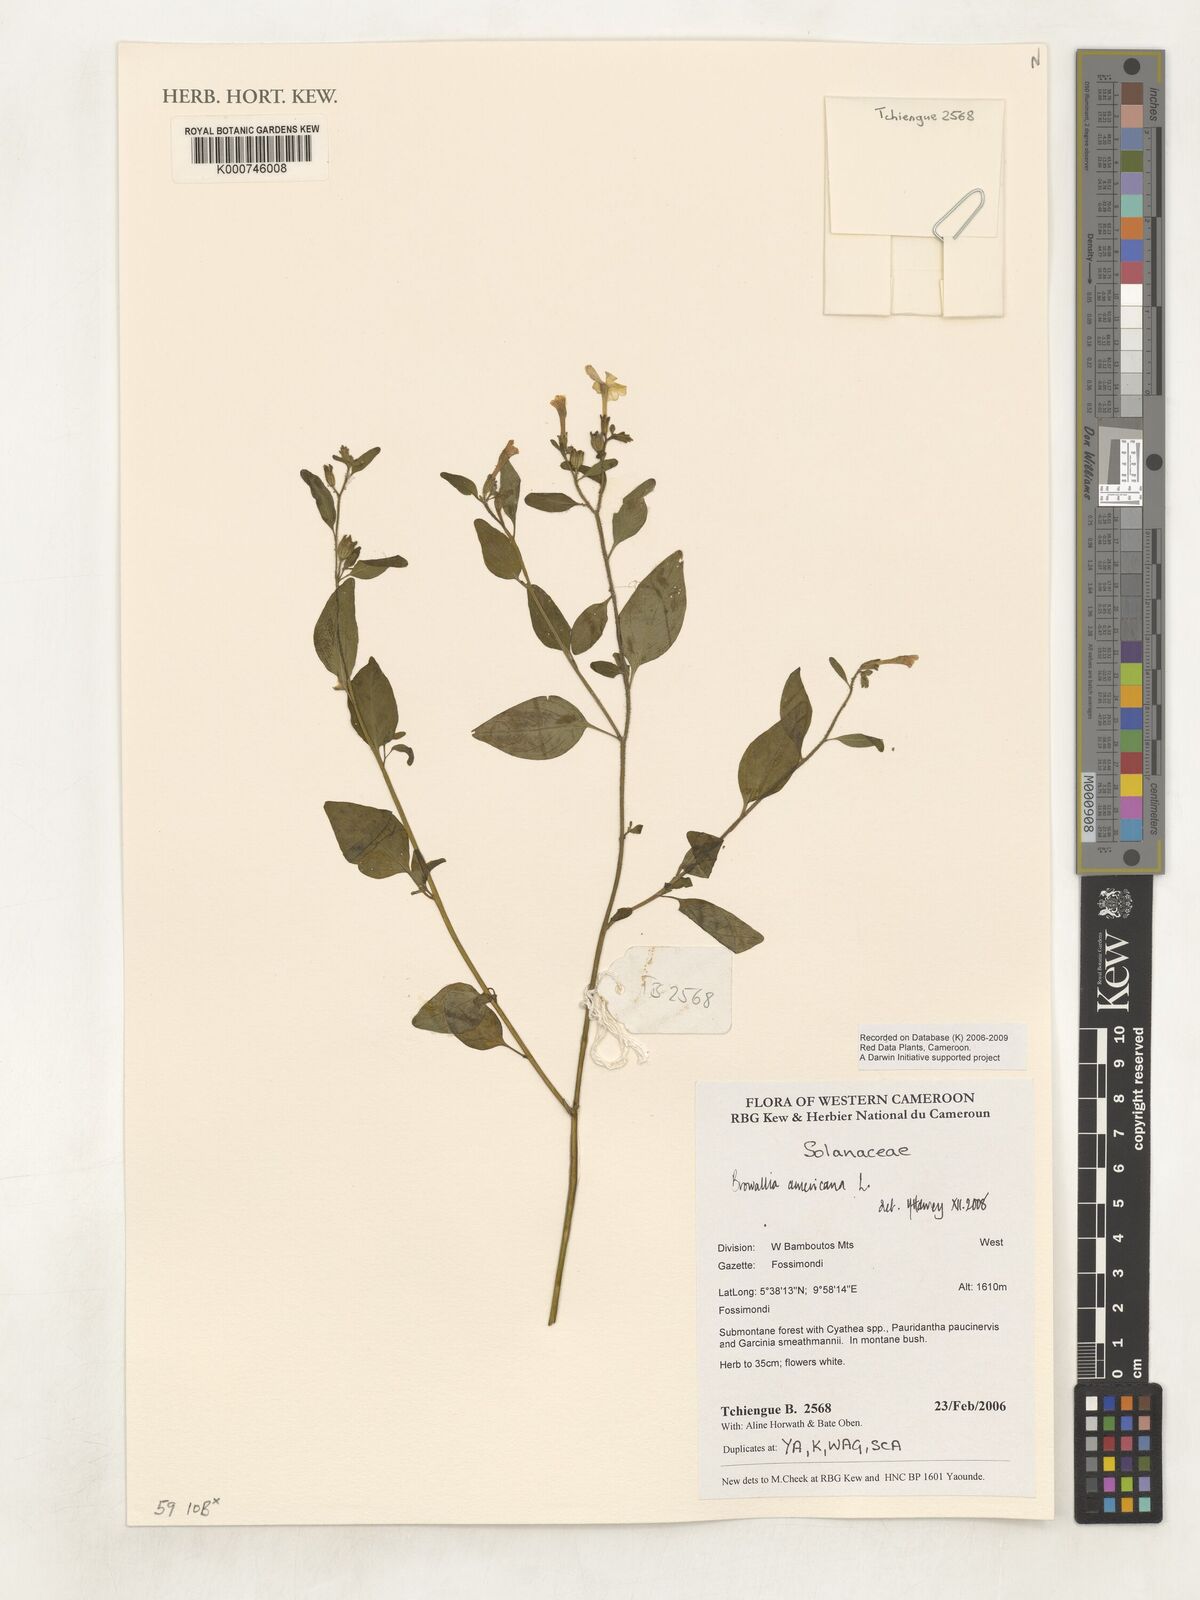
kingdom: Plantae
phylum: Tracheophyta
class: Magnoliopsida
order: Solanales
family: Solanaceae
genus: Browallia
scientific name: Browallia americana
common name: Jamaican forget-me-not
